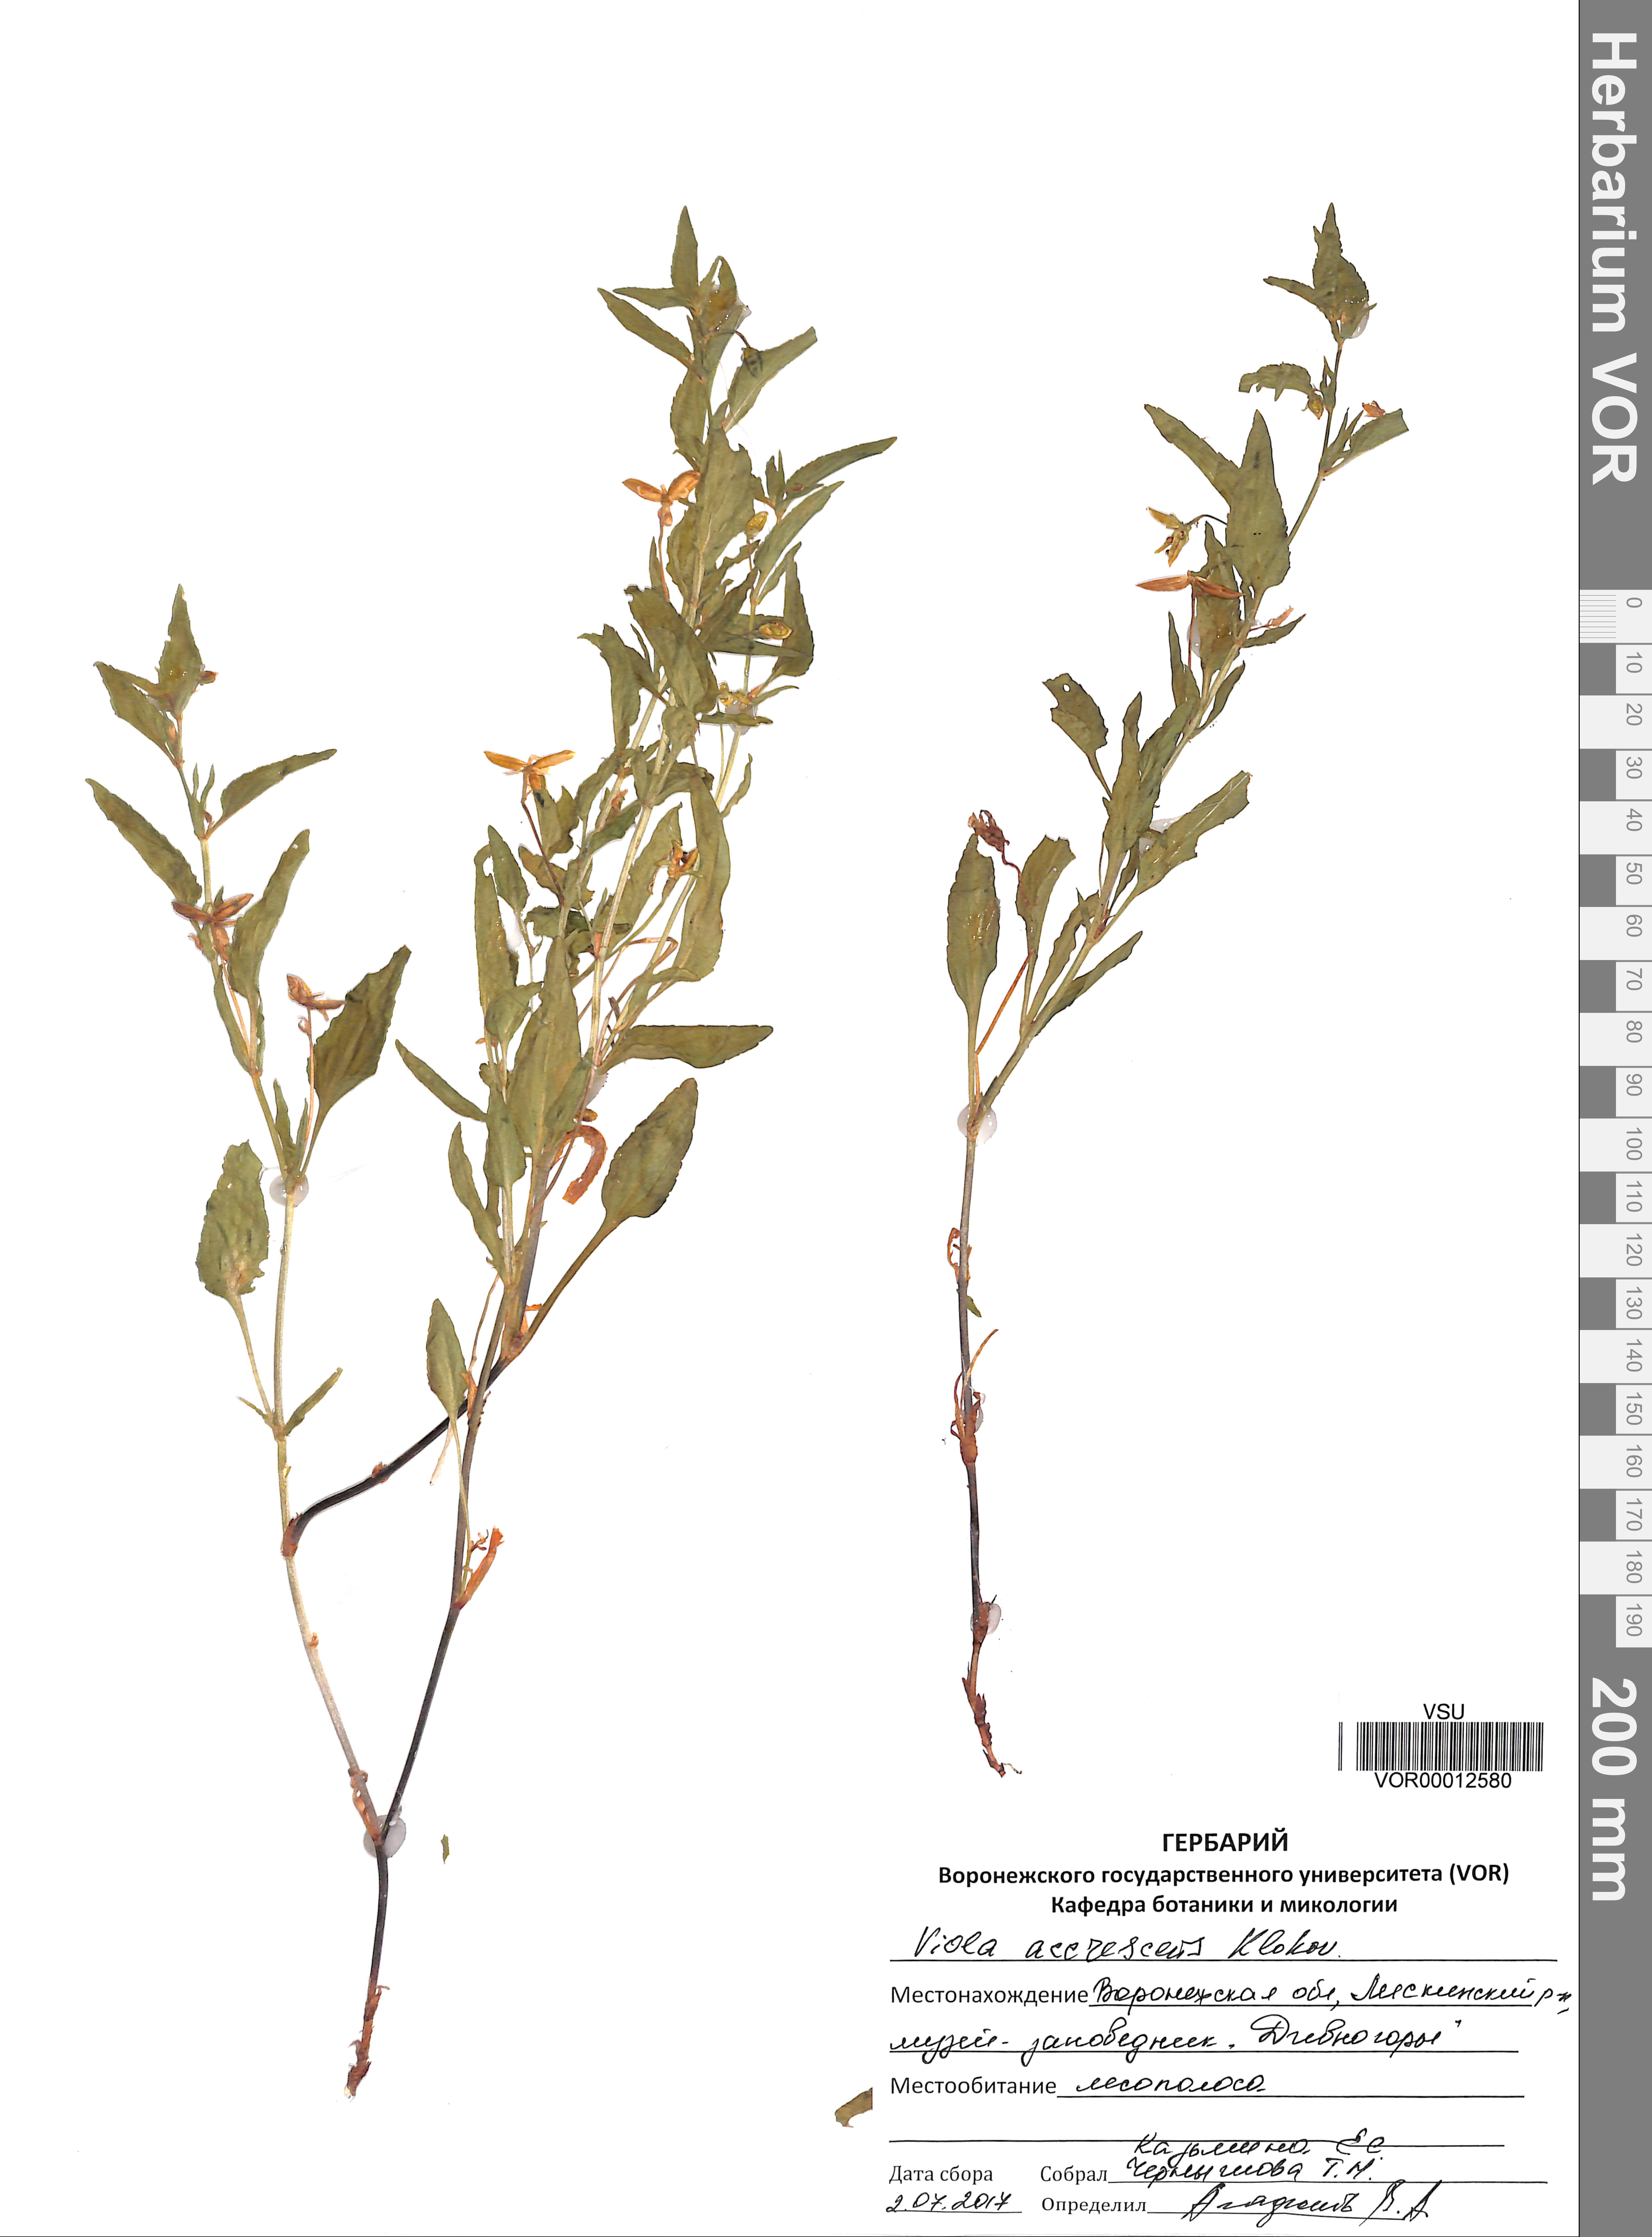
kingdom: Plantae
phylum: Tracheophyta
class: Magnoliopsida
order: Malpighiales
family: Violaceae
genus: Viola
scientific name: Viola pumila
